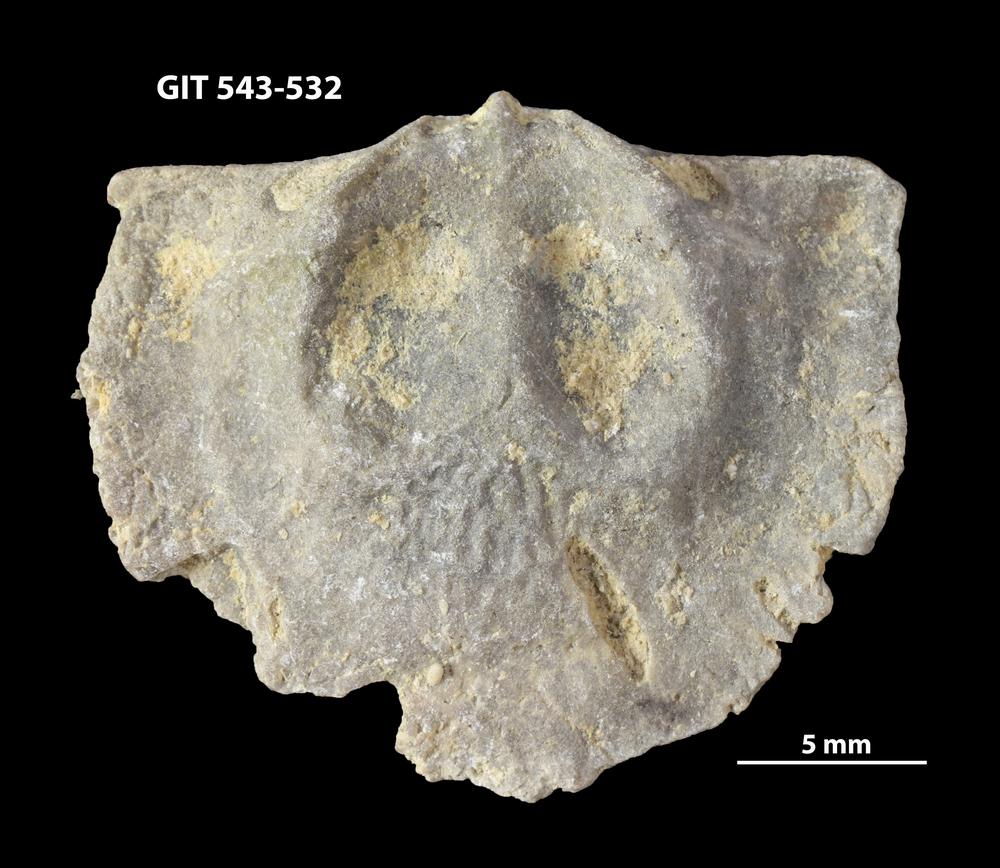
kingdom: Animalia
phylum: Brachiopoda
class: Rhynchonellata
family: Clitambonitidae
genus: Vellamo
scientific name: Vellamo Orthis verneuili
